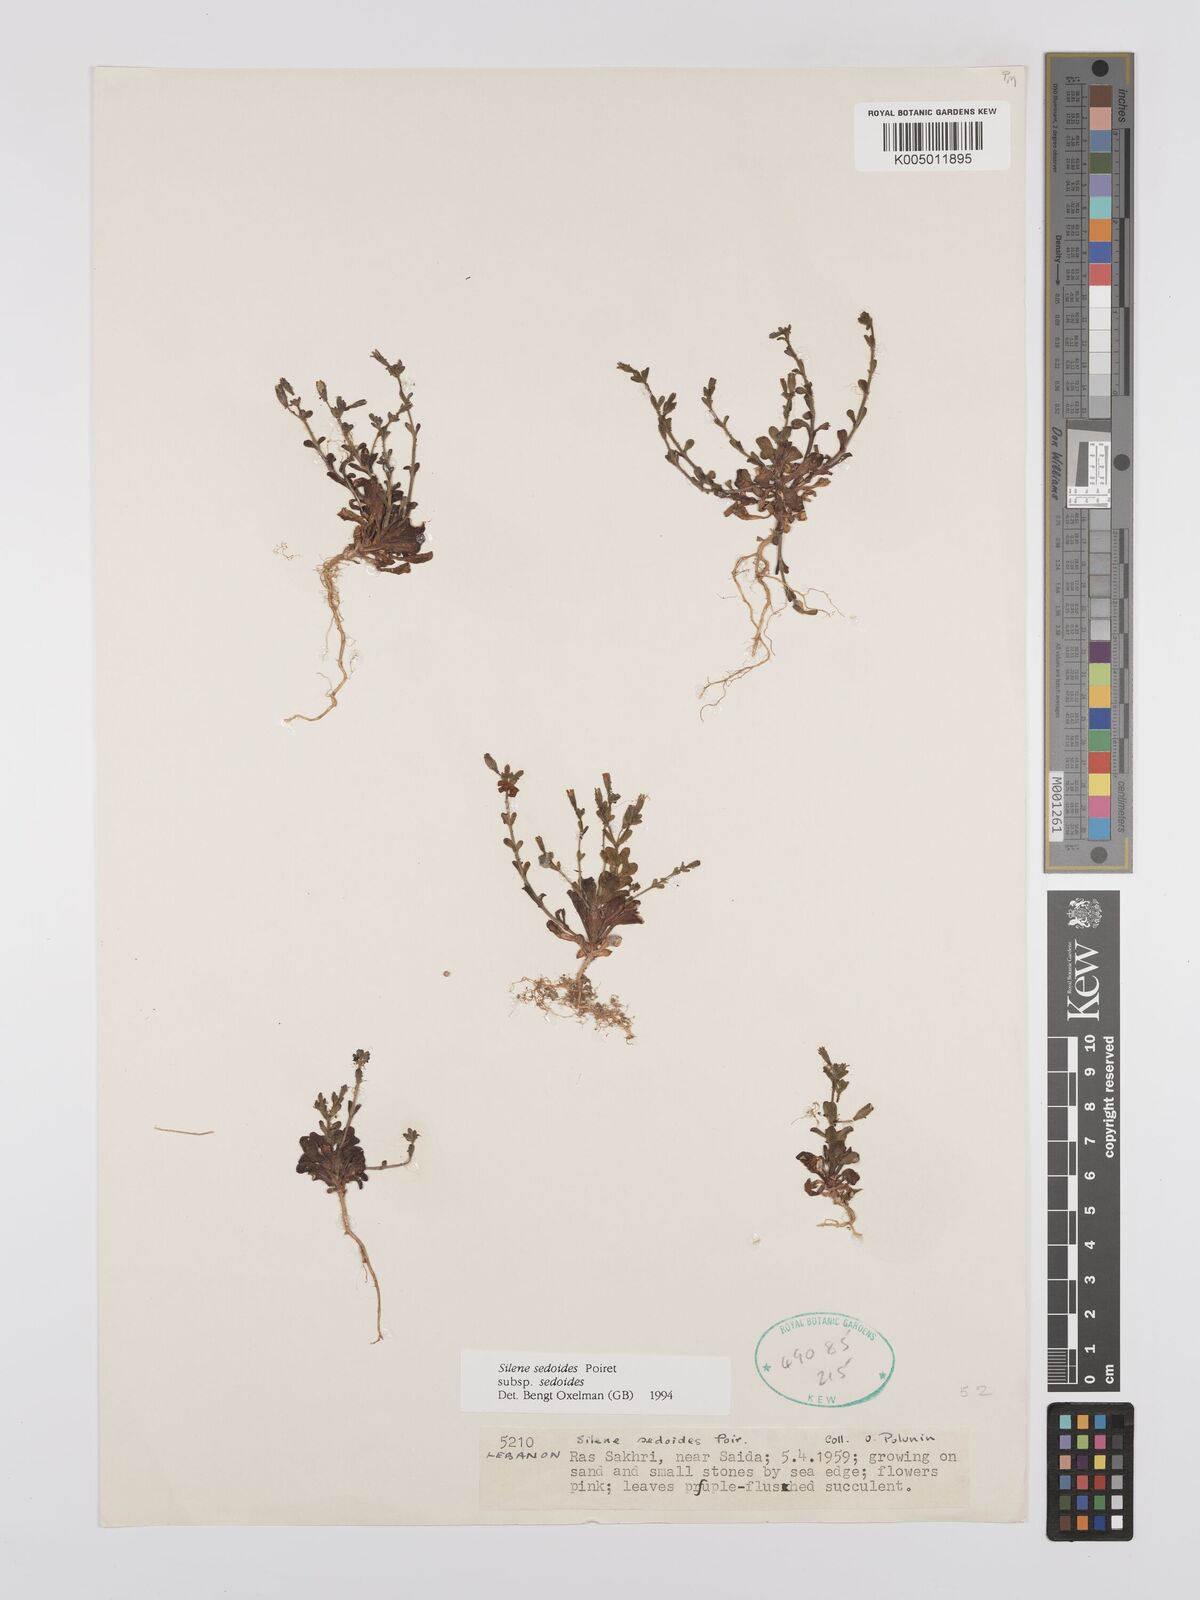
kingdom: Plantae
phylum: Tracheophyta
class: Magnoliopsida
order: Caryophyllales
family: Caryophyllaceae
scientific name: Caryophyllaceae
